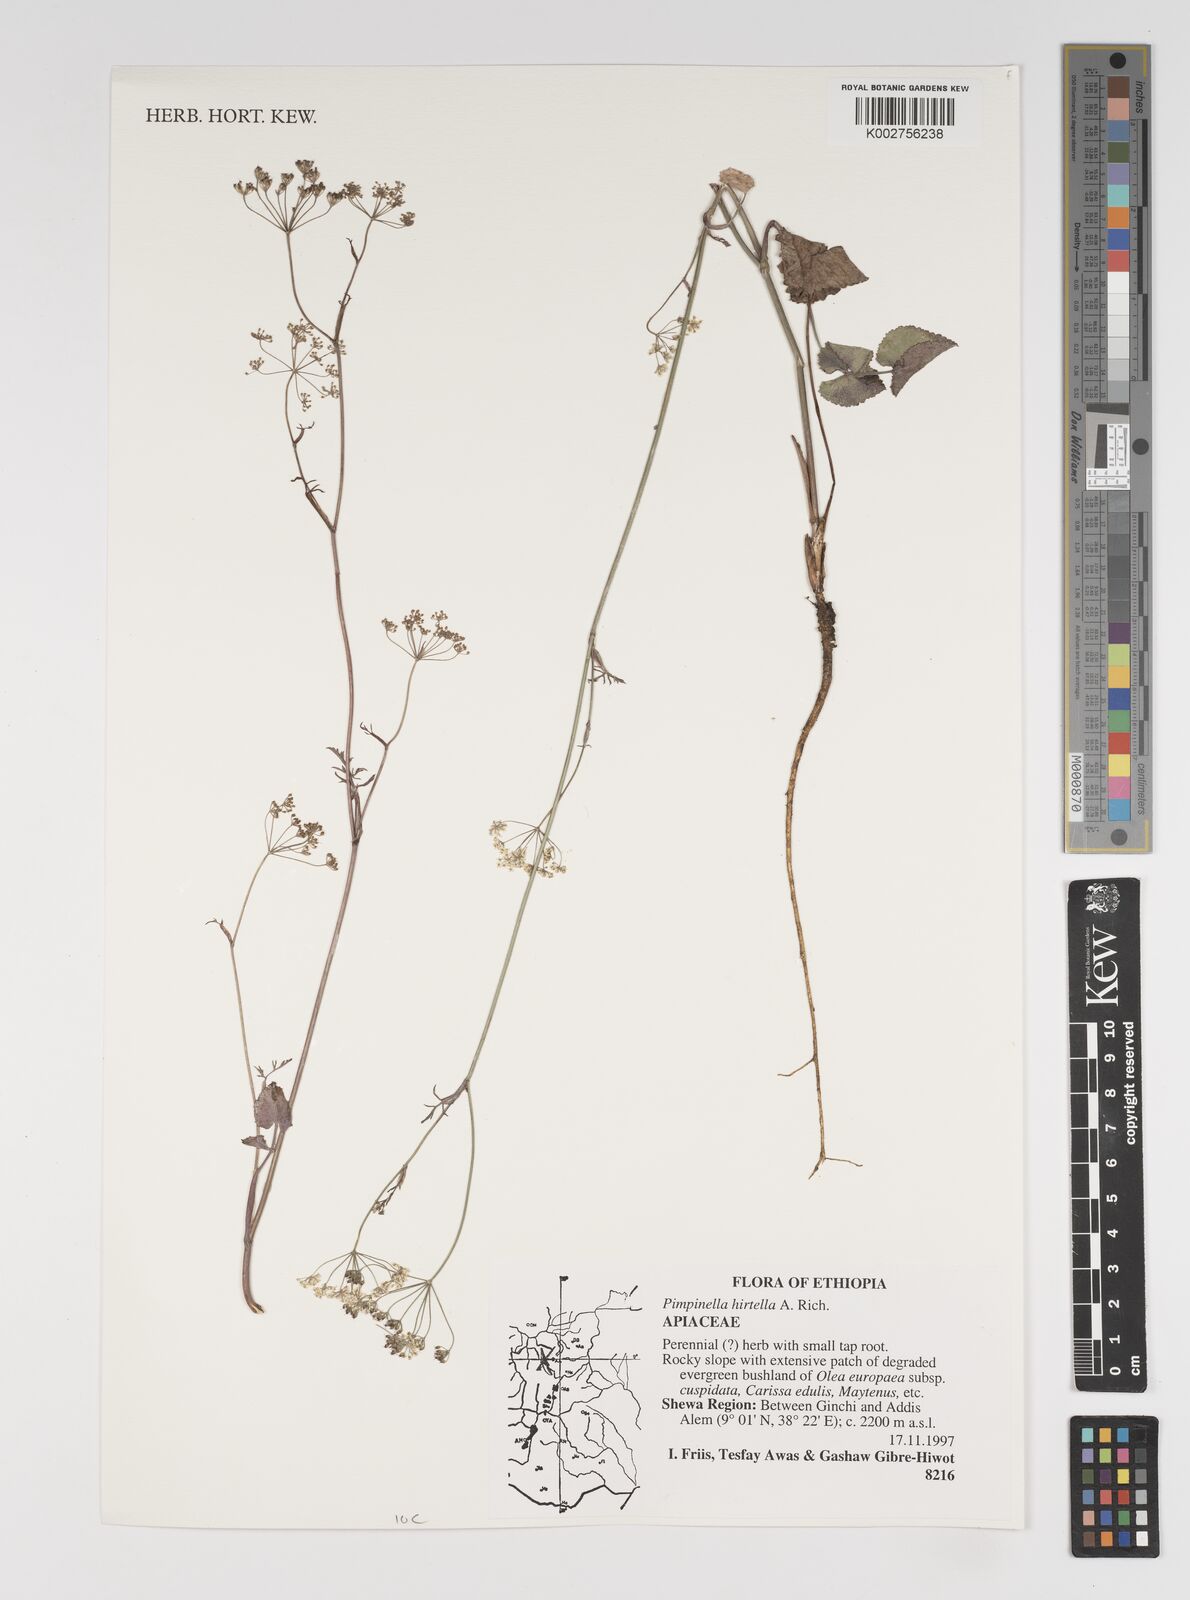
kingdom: Plantae
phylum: Tracheophyta
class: Magnoliopsida
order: Apiales
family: Apiaceae
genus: Pimpinella
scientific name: Pimpinella hirtella
